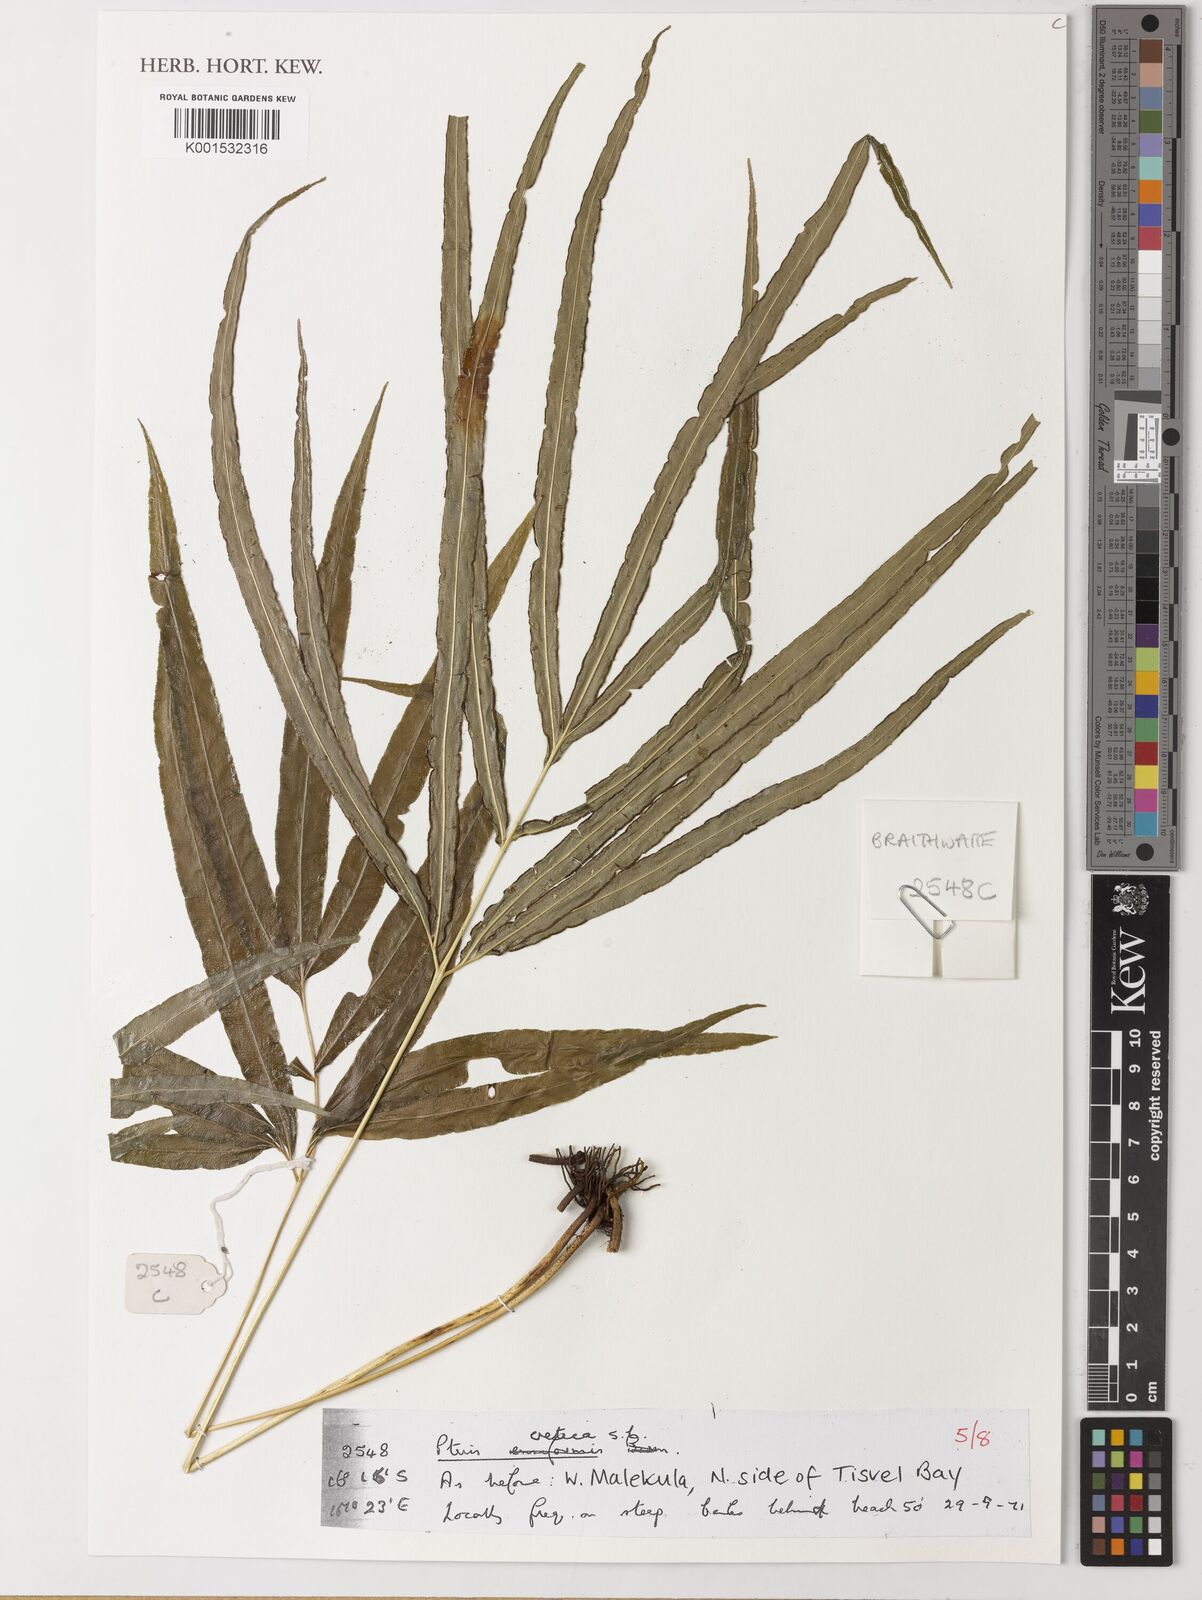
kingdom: Plantae
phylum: Tracheophyta
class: Polypodiopsida
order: Polypodiales
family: Pteridaceae
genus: Pteris
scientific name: Pteris cretica
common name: Ribbon fern
